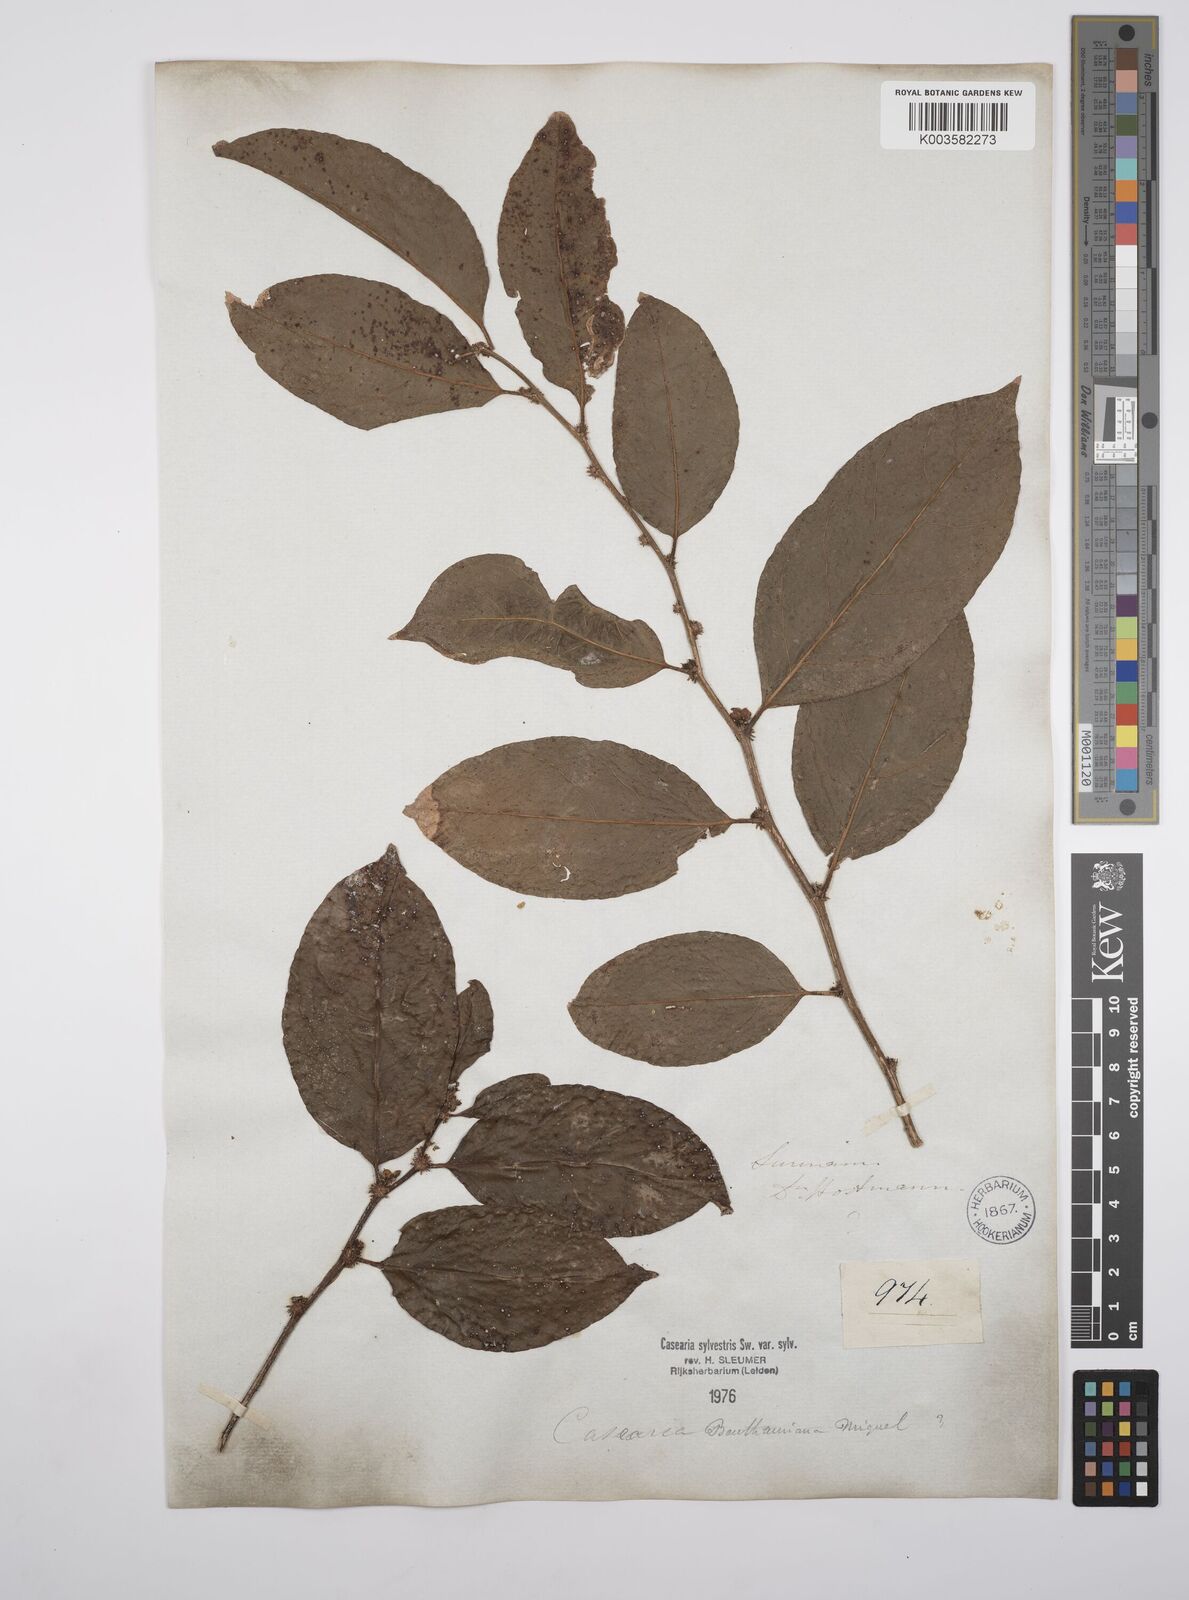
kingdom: Plantae
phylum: Tracheophyta
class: Magnoliopsida
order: Malpighiales
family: Salicaceae
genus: Casearia
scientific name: Casearia sylvestris
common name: Wild sage
